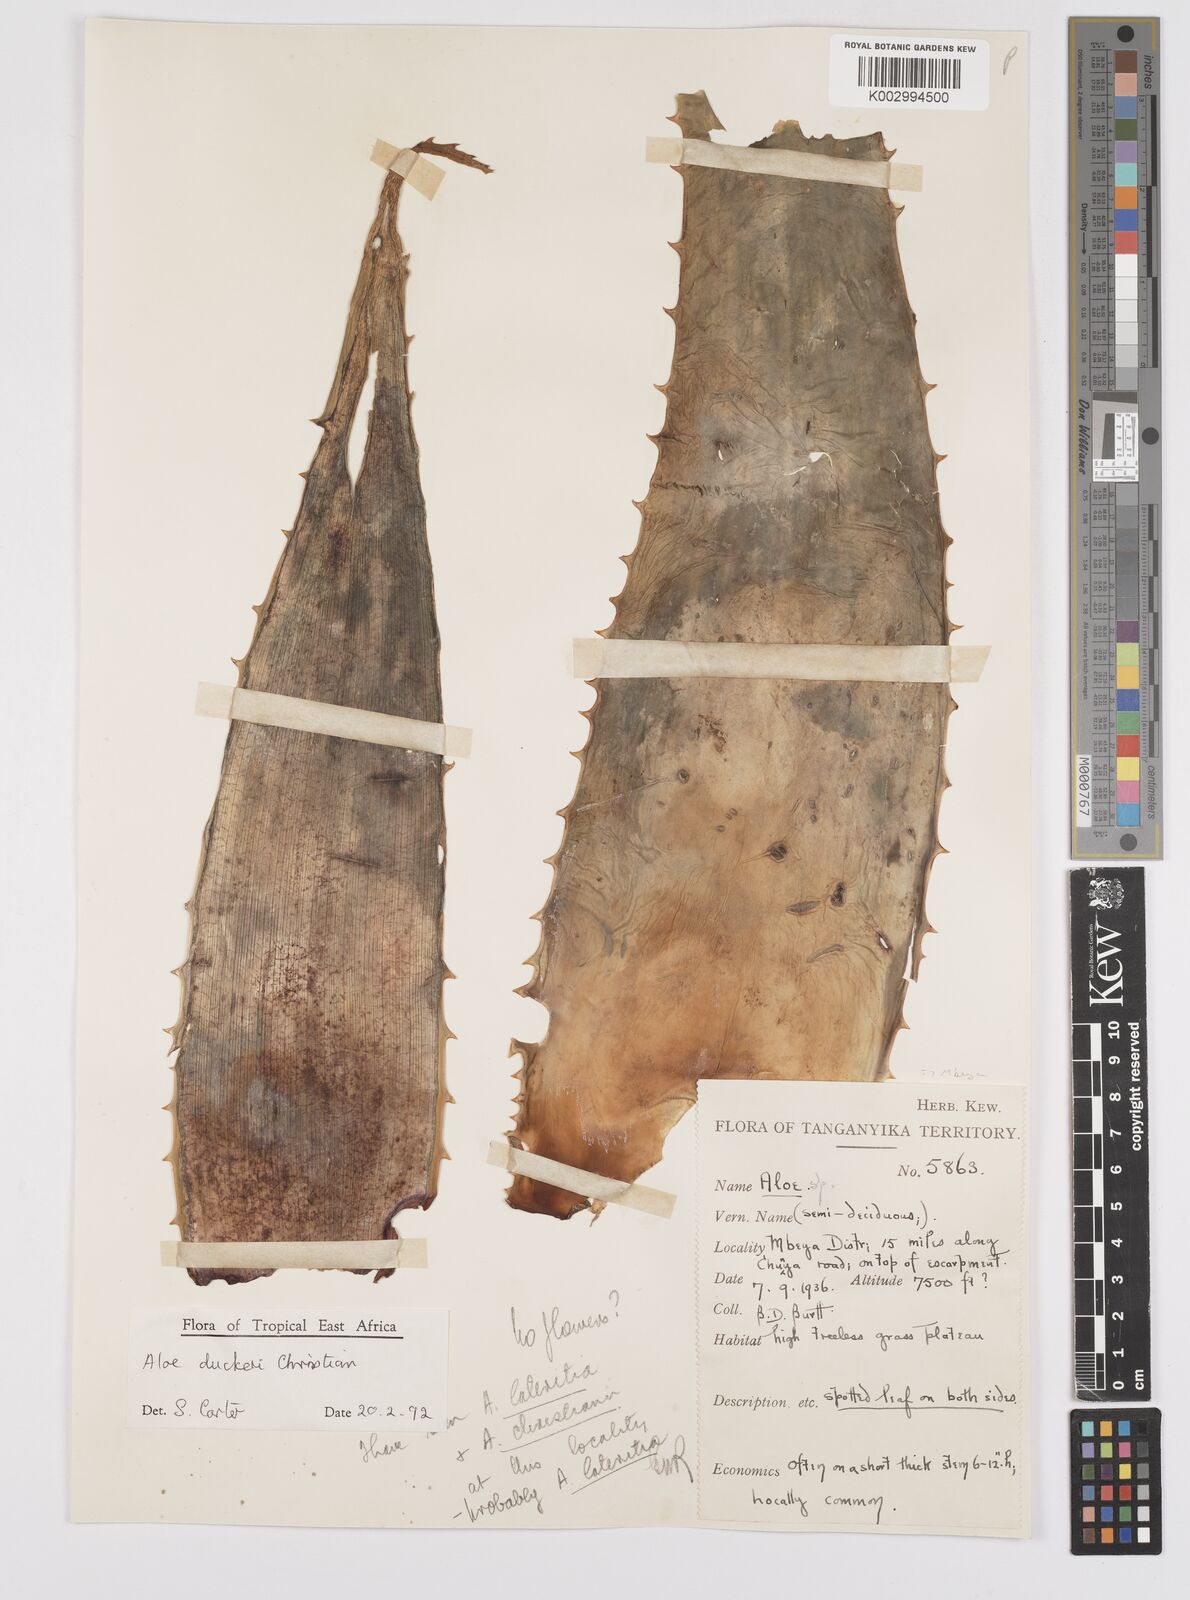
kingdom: Plantae
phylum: Tracheophyta
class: Liliopsida
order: Asparagales
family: Asphodelaceae
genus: Aloe
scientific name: Aloe duckeri
